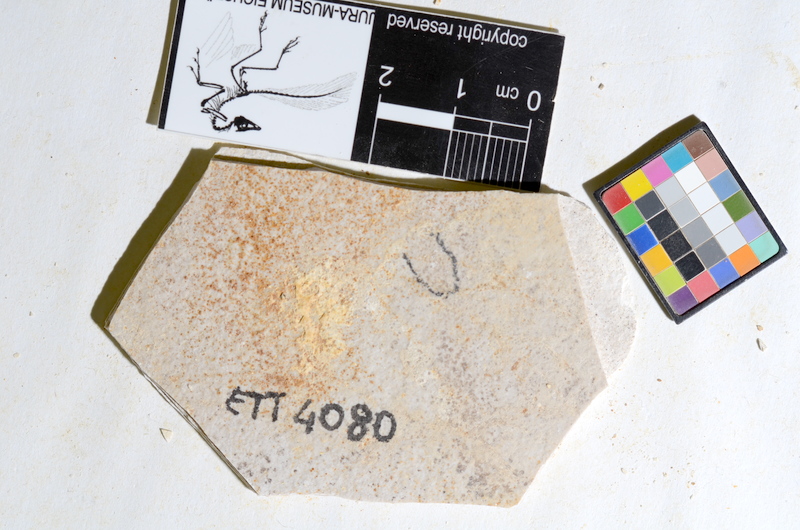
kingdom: Animalia
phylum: Chordata
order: Salmoniformes
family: Orthogonikleithridae
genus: Orthogonikleithrus
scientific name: Orthogonikleithrus hoelli
